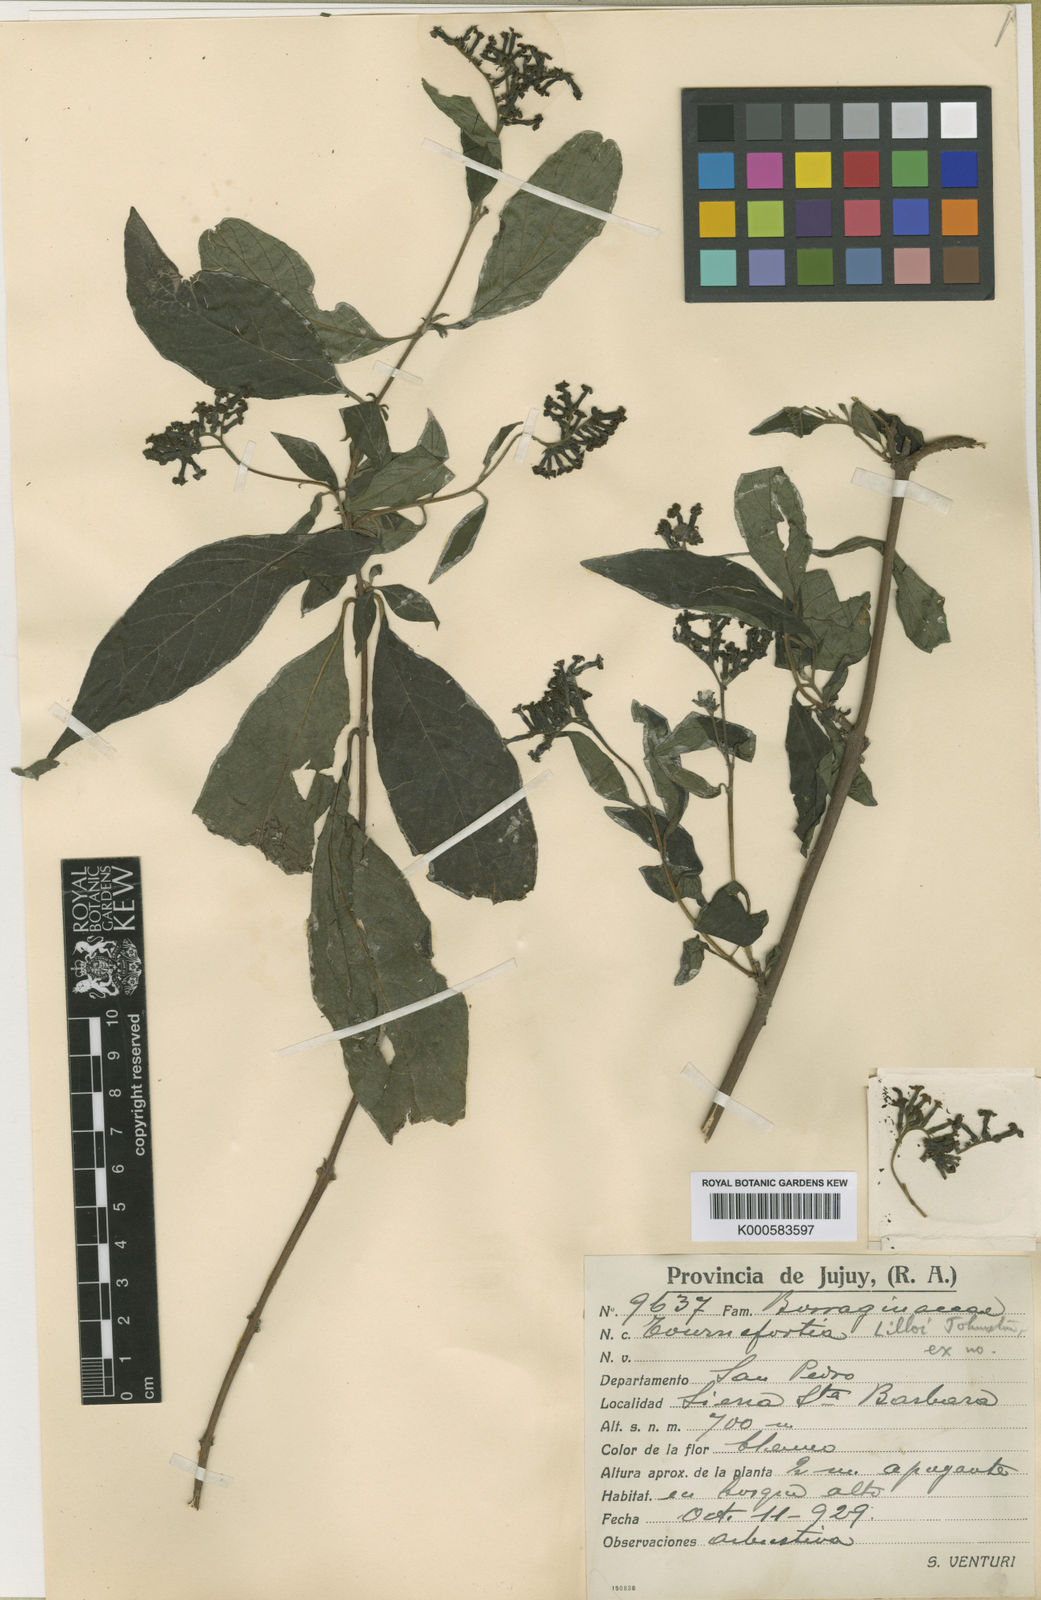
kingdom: Plantae
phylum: Tracheophyta
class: Magnoliopsida
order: Boraginales
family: Heliotropiaceae
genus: Heliotropium
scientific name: Heliotropium lilloi
